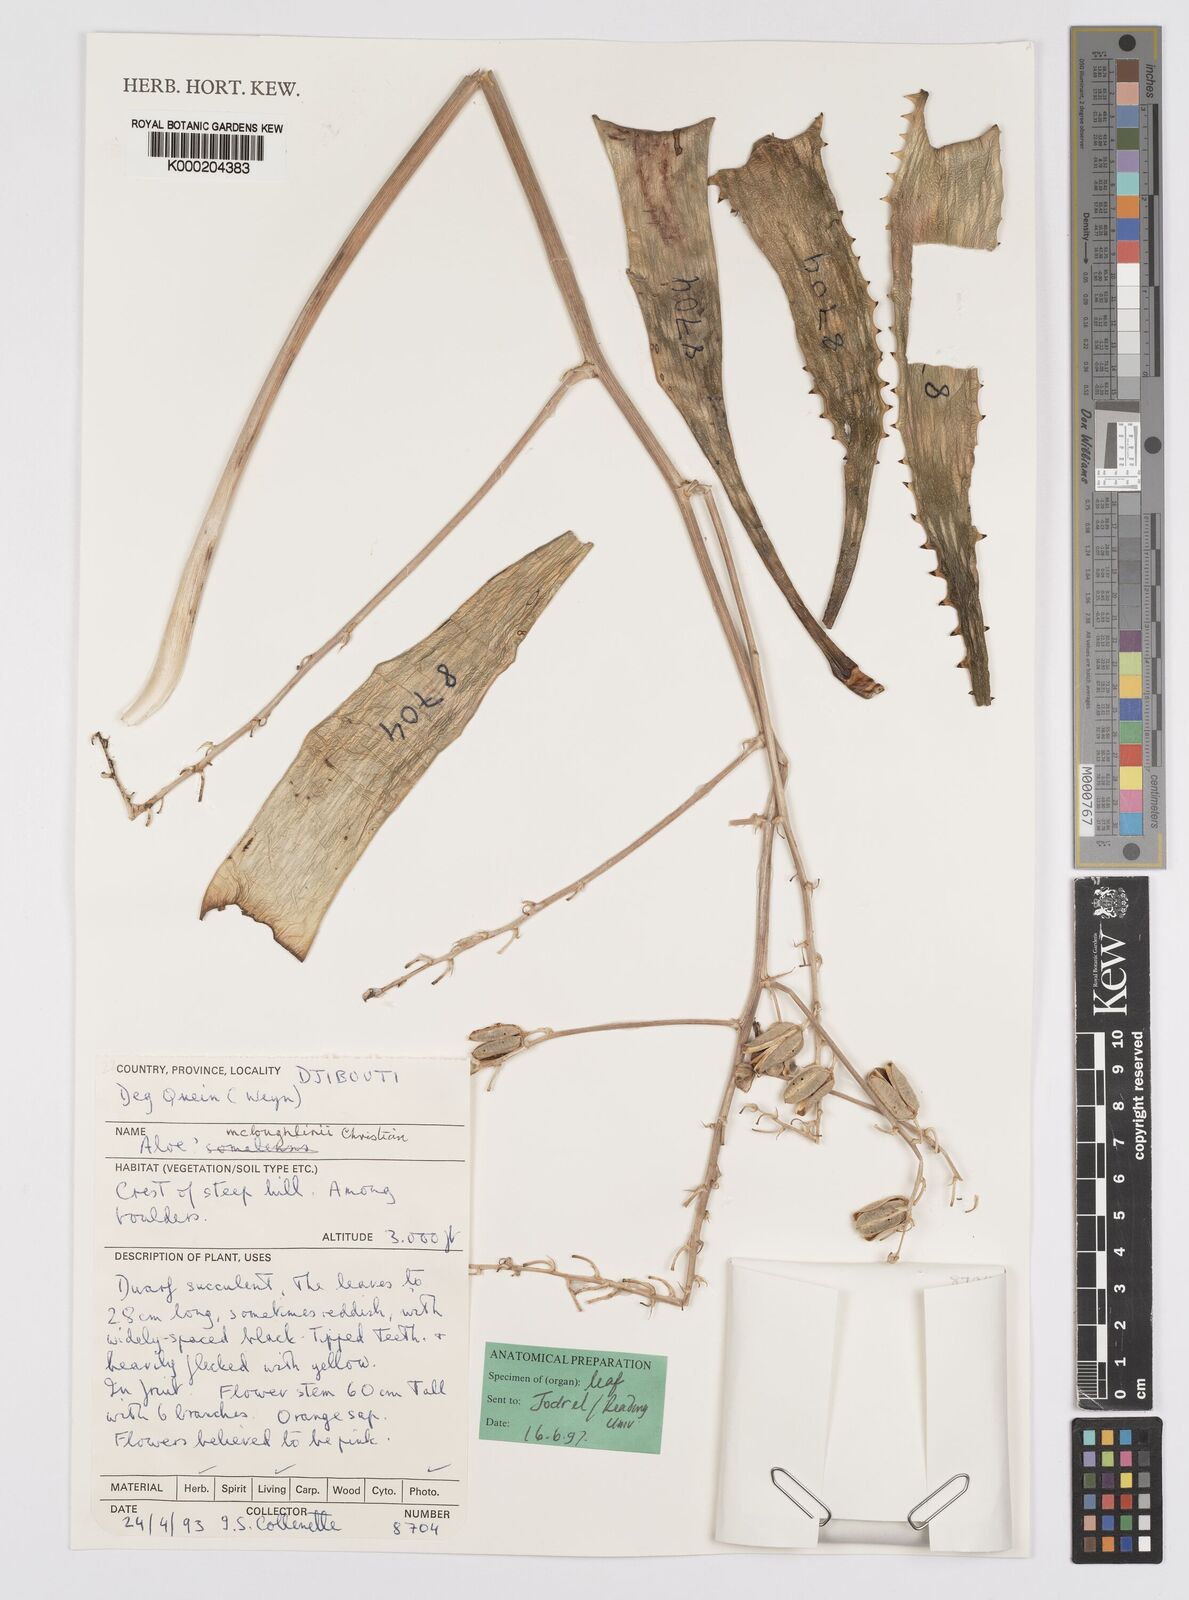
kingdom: Plantae
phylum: Tracheophyta
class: Liliopsida
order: Asparagales
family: Asphodelaceae
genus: Aloe
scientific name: Aloe
